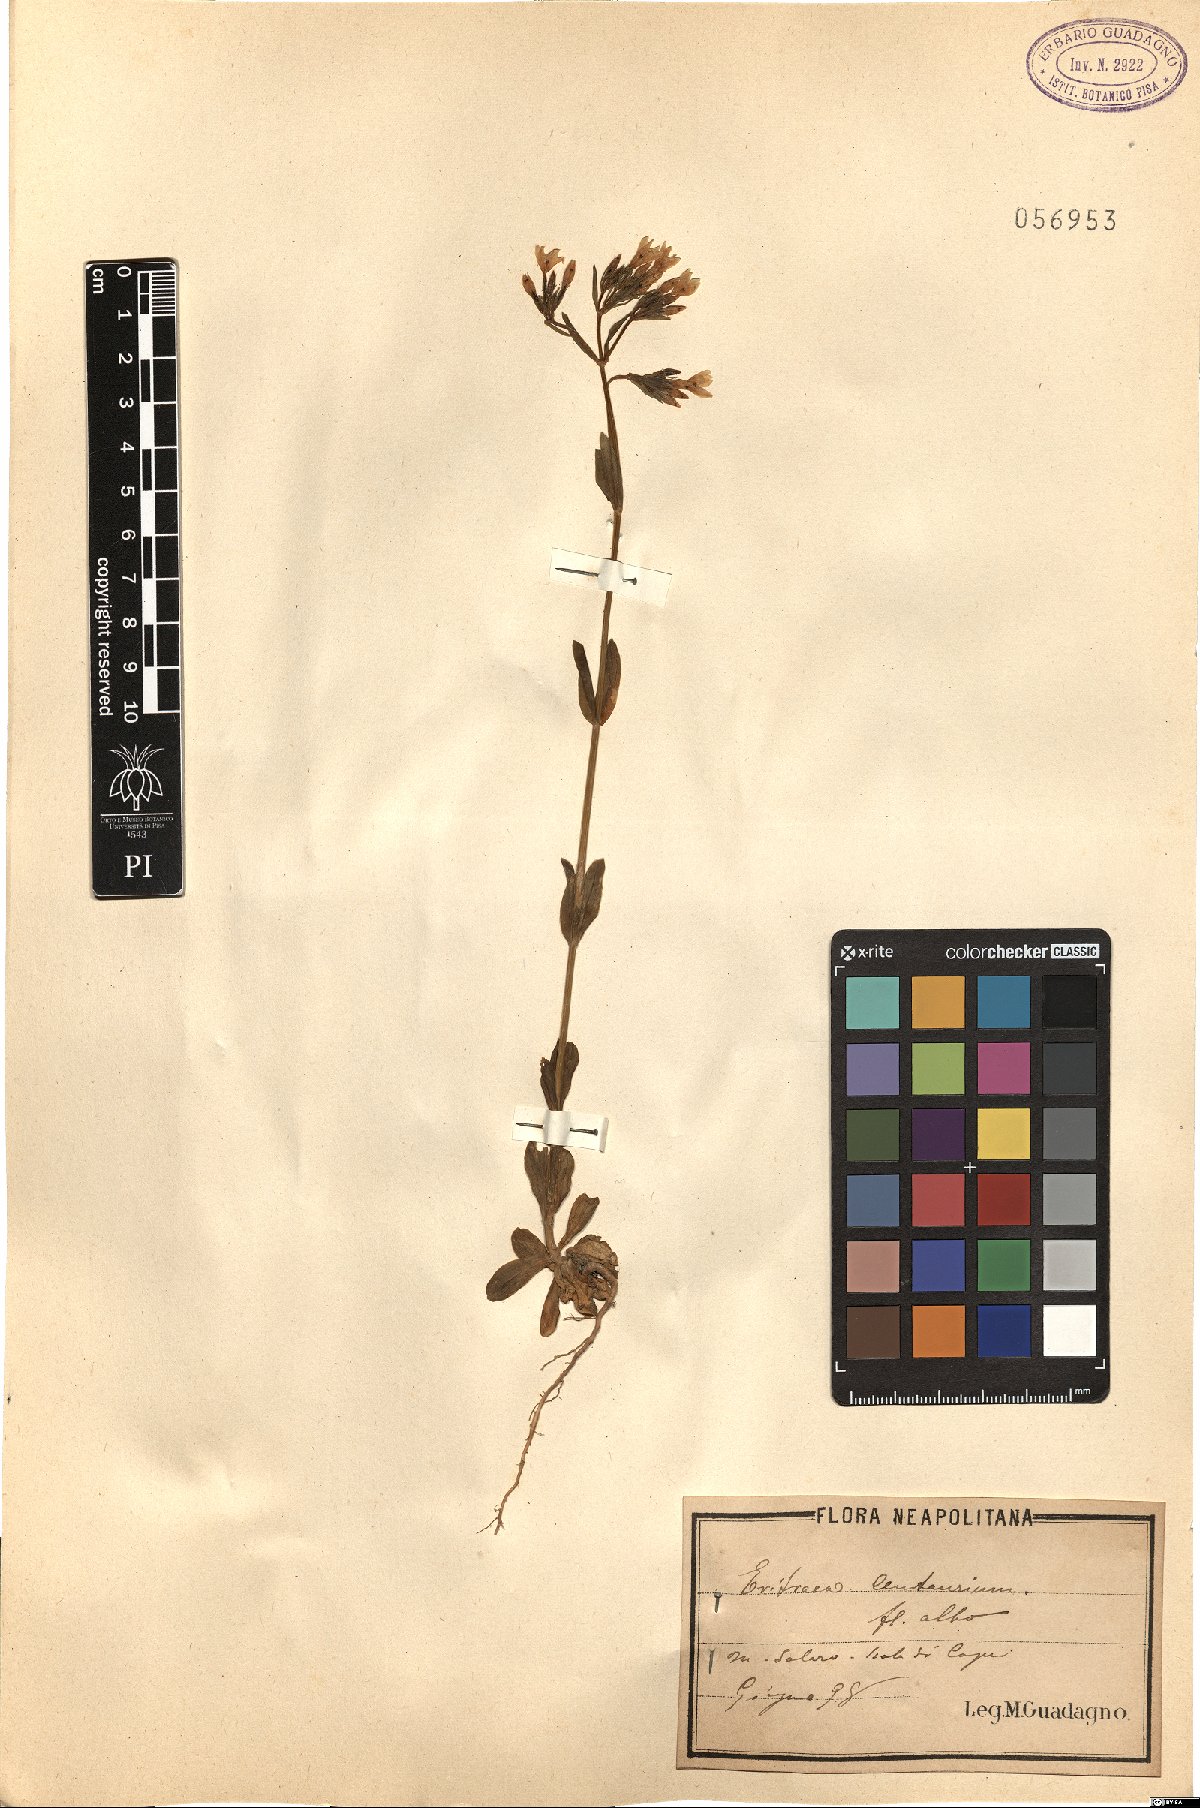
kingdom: Plantae
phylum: Tracheophyta
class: Magnoliopsida
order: Gentianales
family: Gentianaceae
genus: Centaurium
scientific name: Centaurium erythraea
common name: Common centaury
